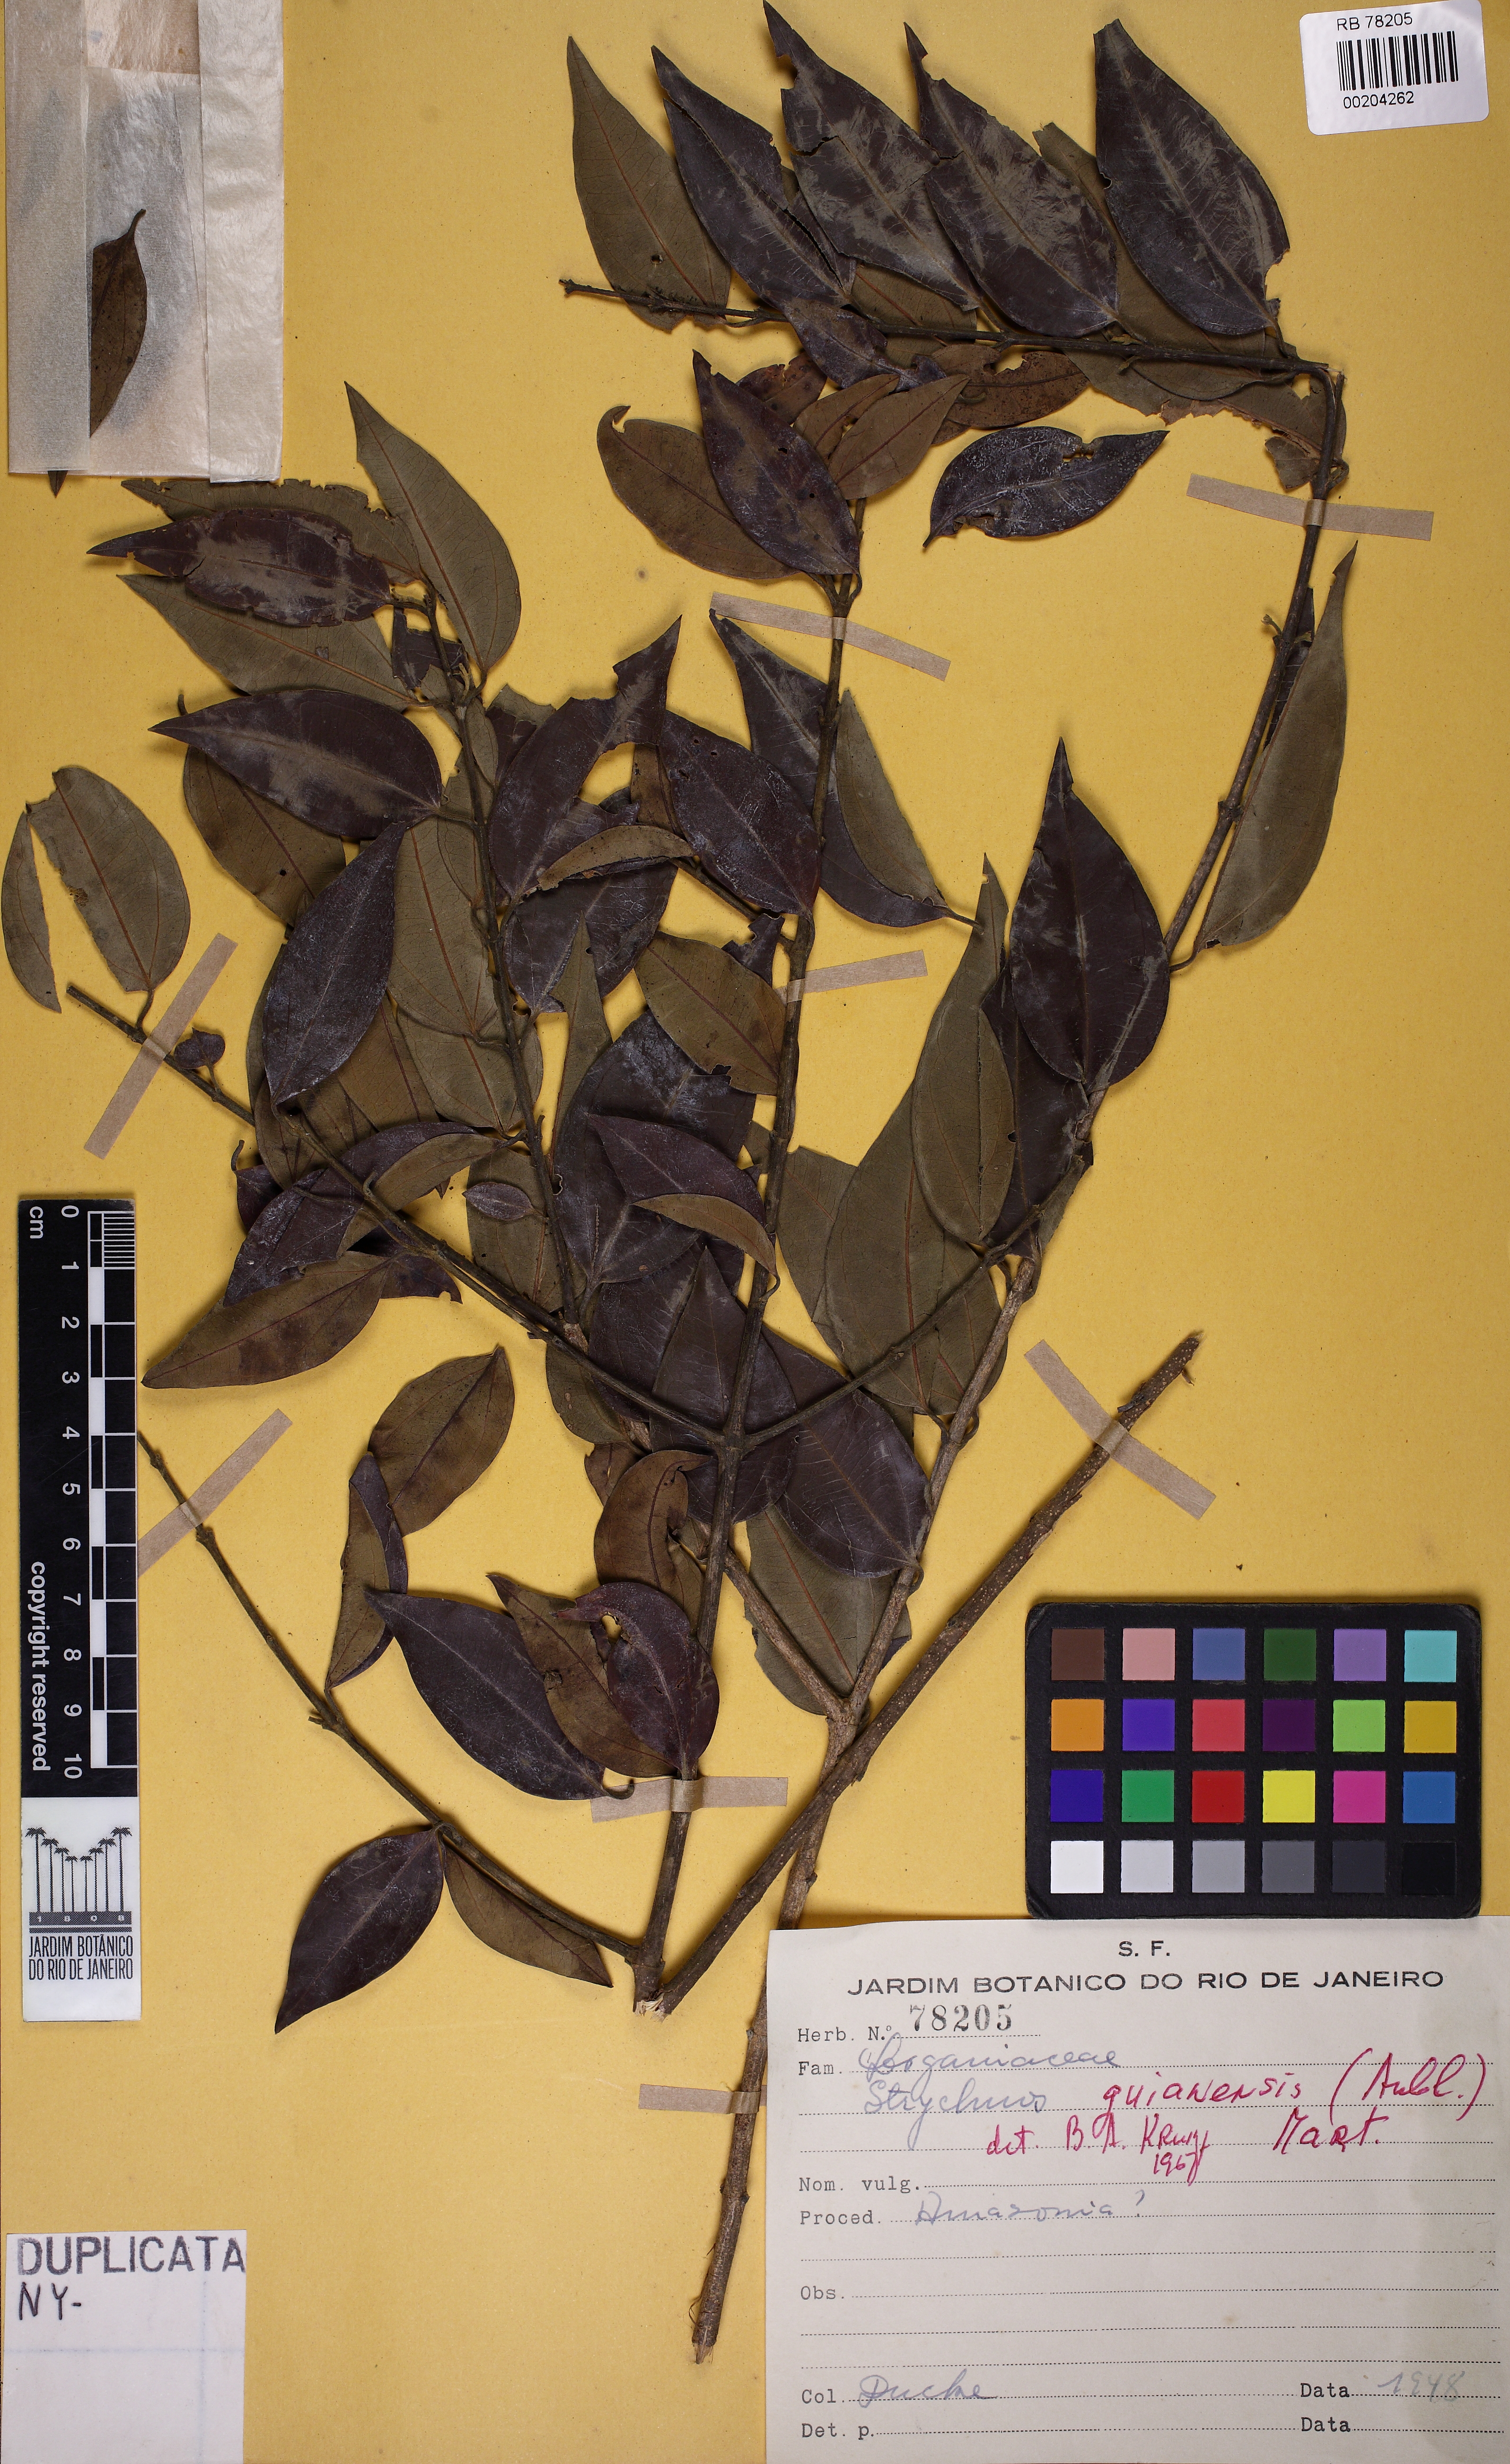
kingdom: Plantae
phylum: Tracheophyta
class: Magnoliopsida
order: Gentianales
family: Loganiaceae
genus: Strychnos
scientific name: Strychnos guianensis
